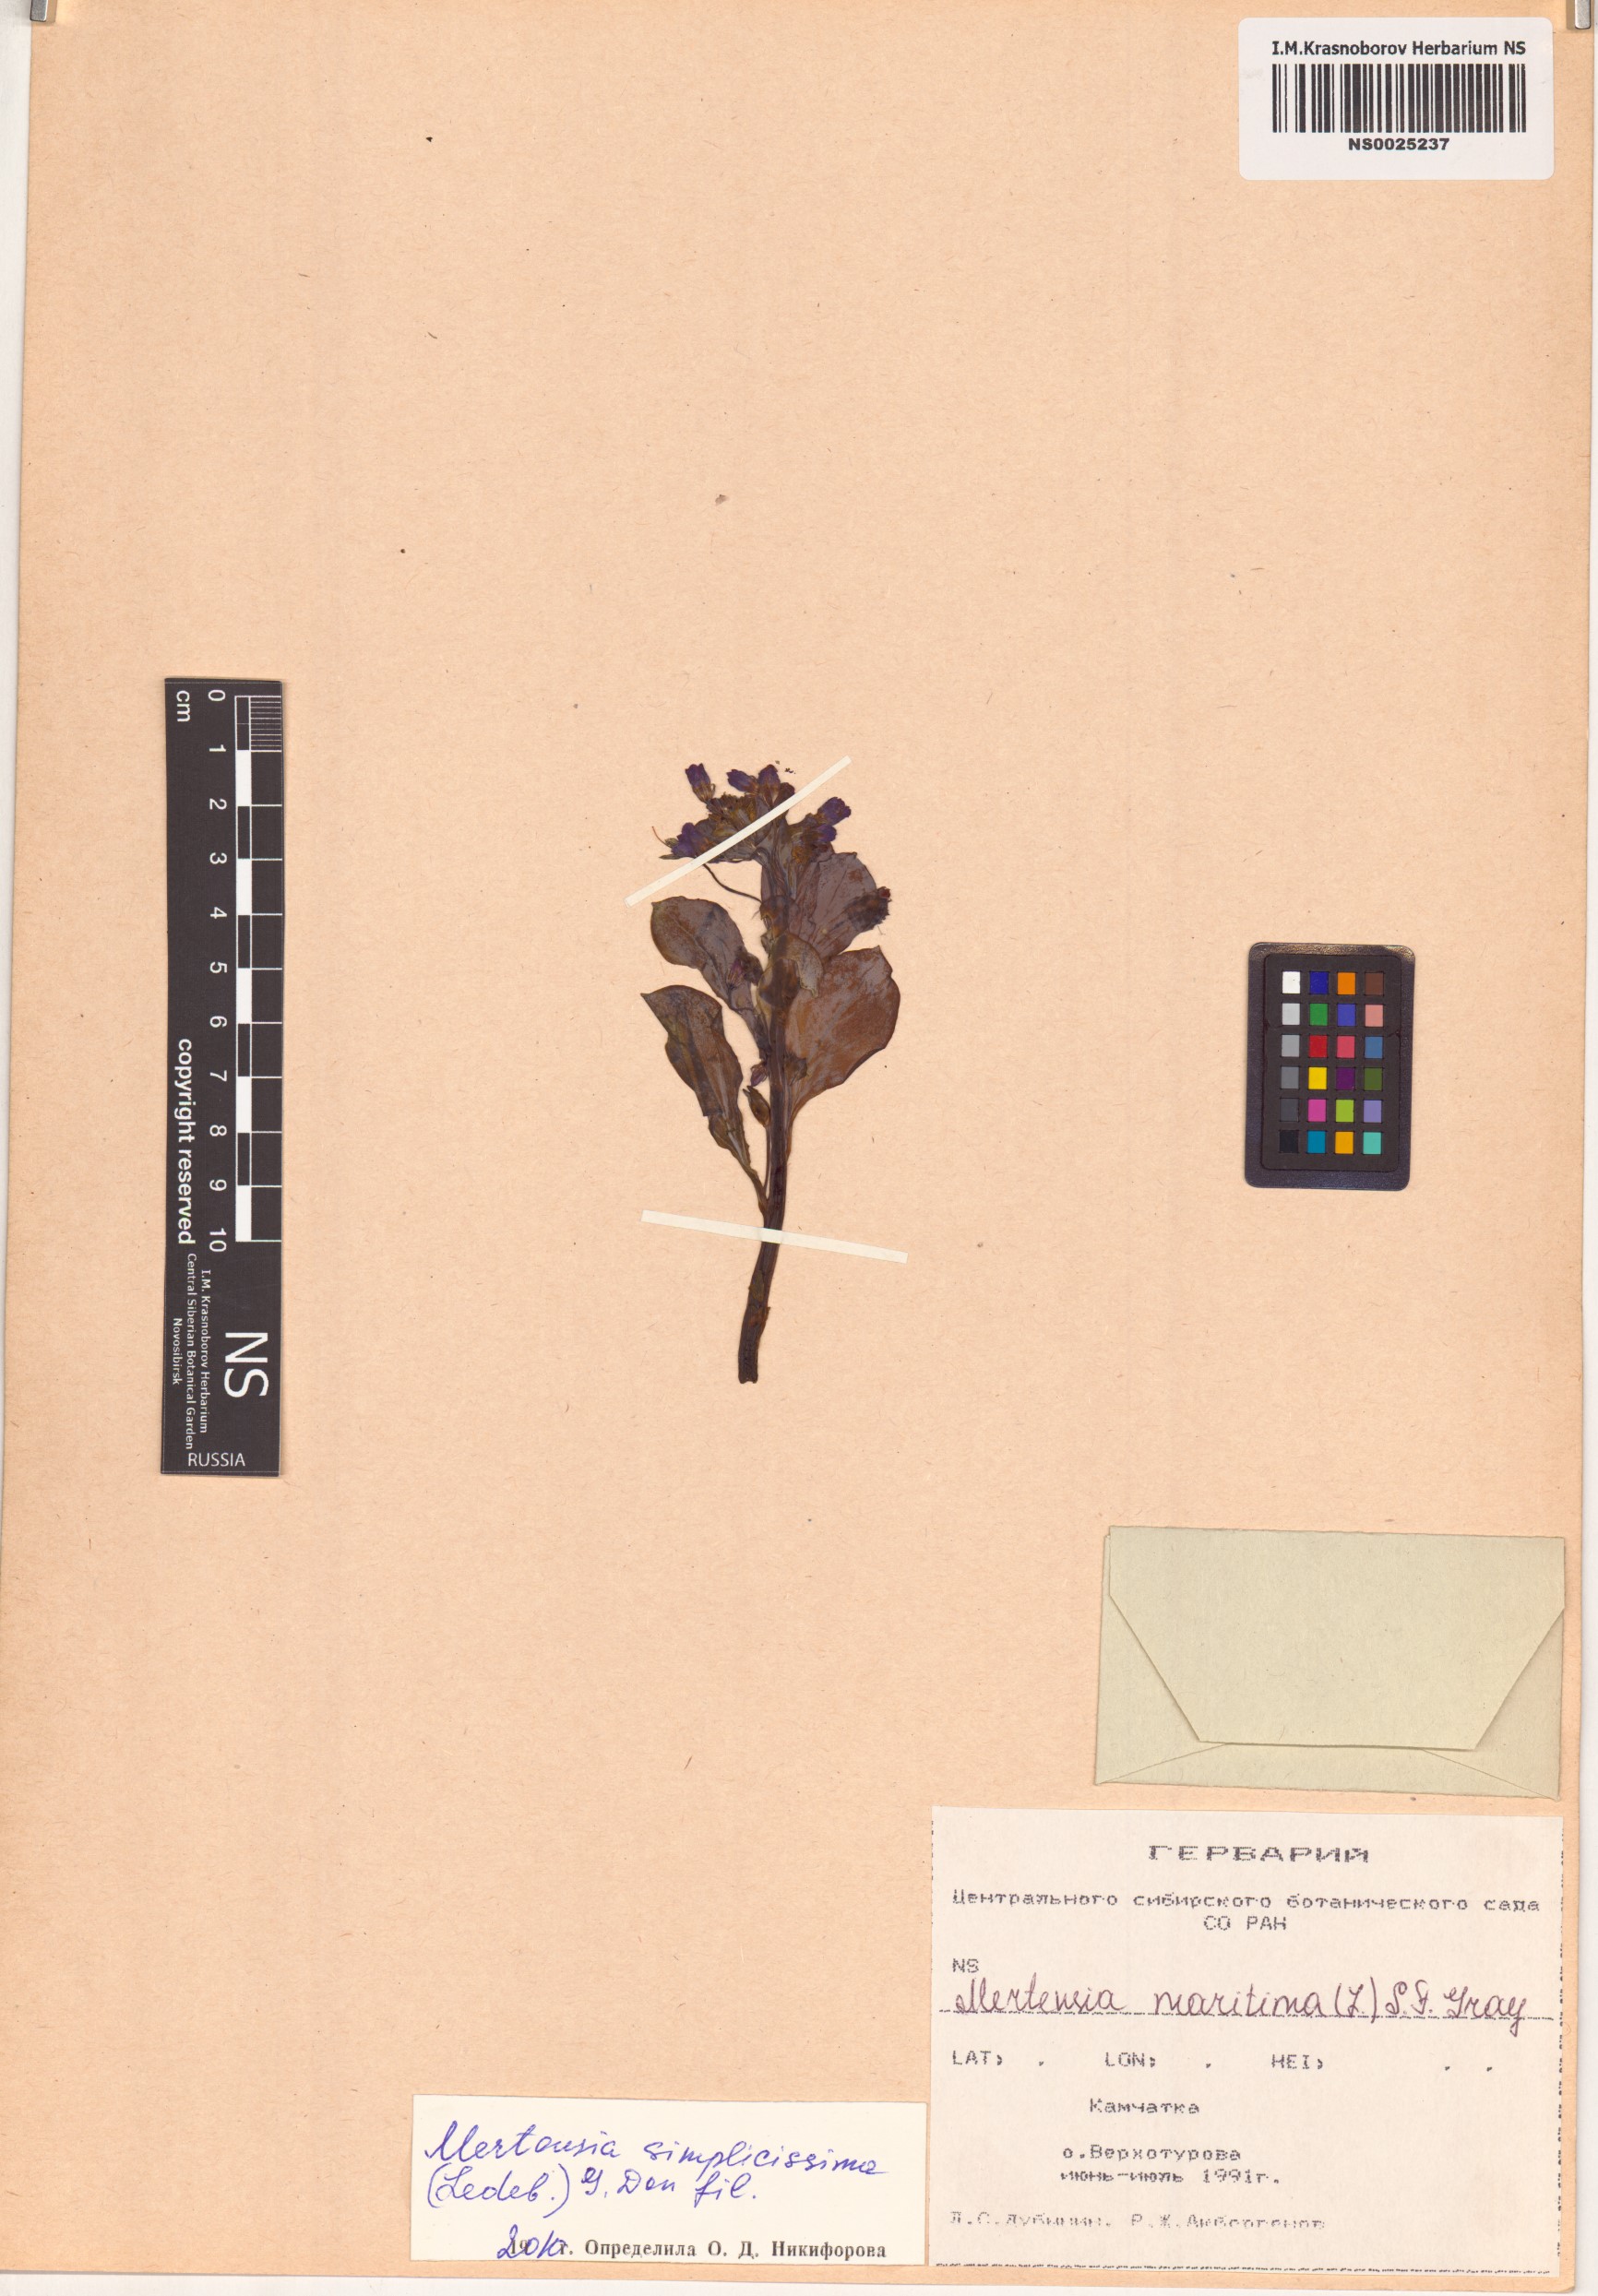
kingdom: Plantae
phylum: Tracheophyta
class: Magnoliopsida
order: Boraginales
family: Boraginaceae
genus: Mertensia
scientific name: Mertensia simplicissima
